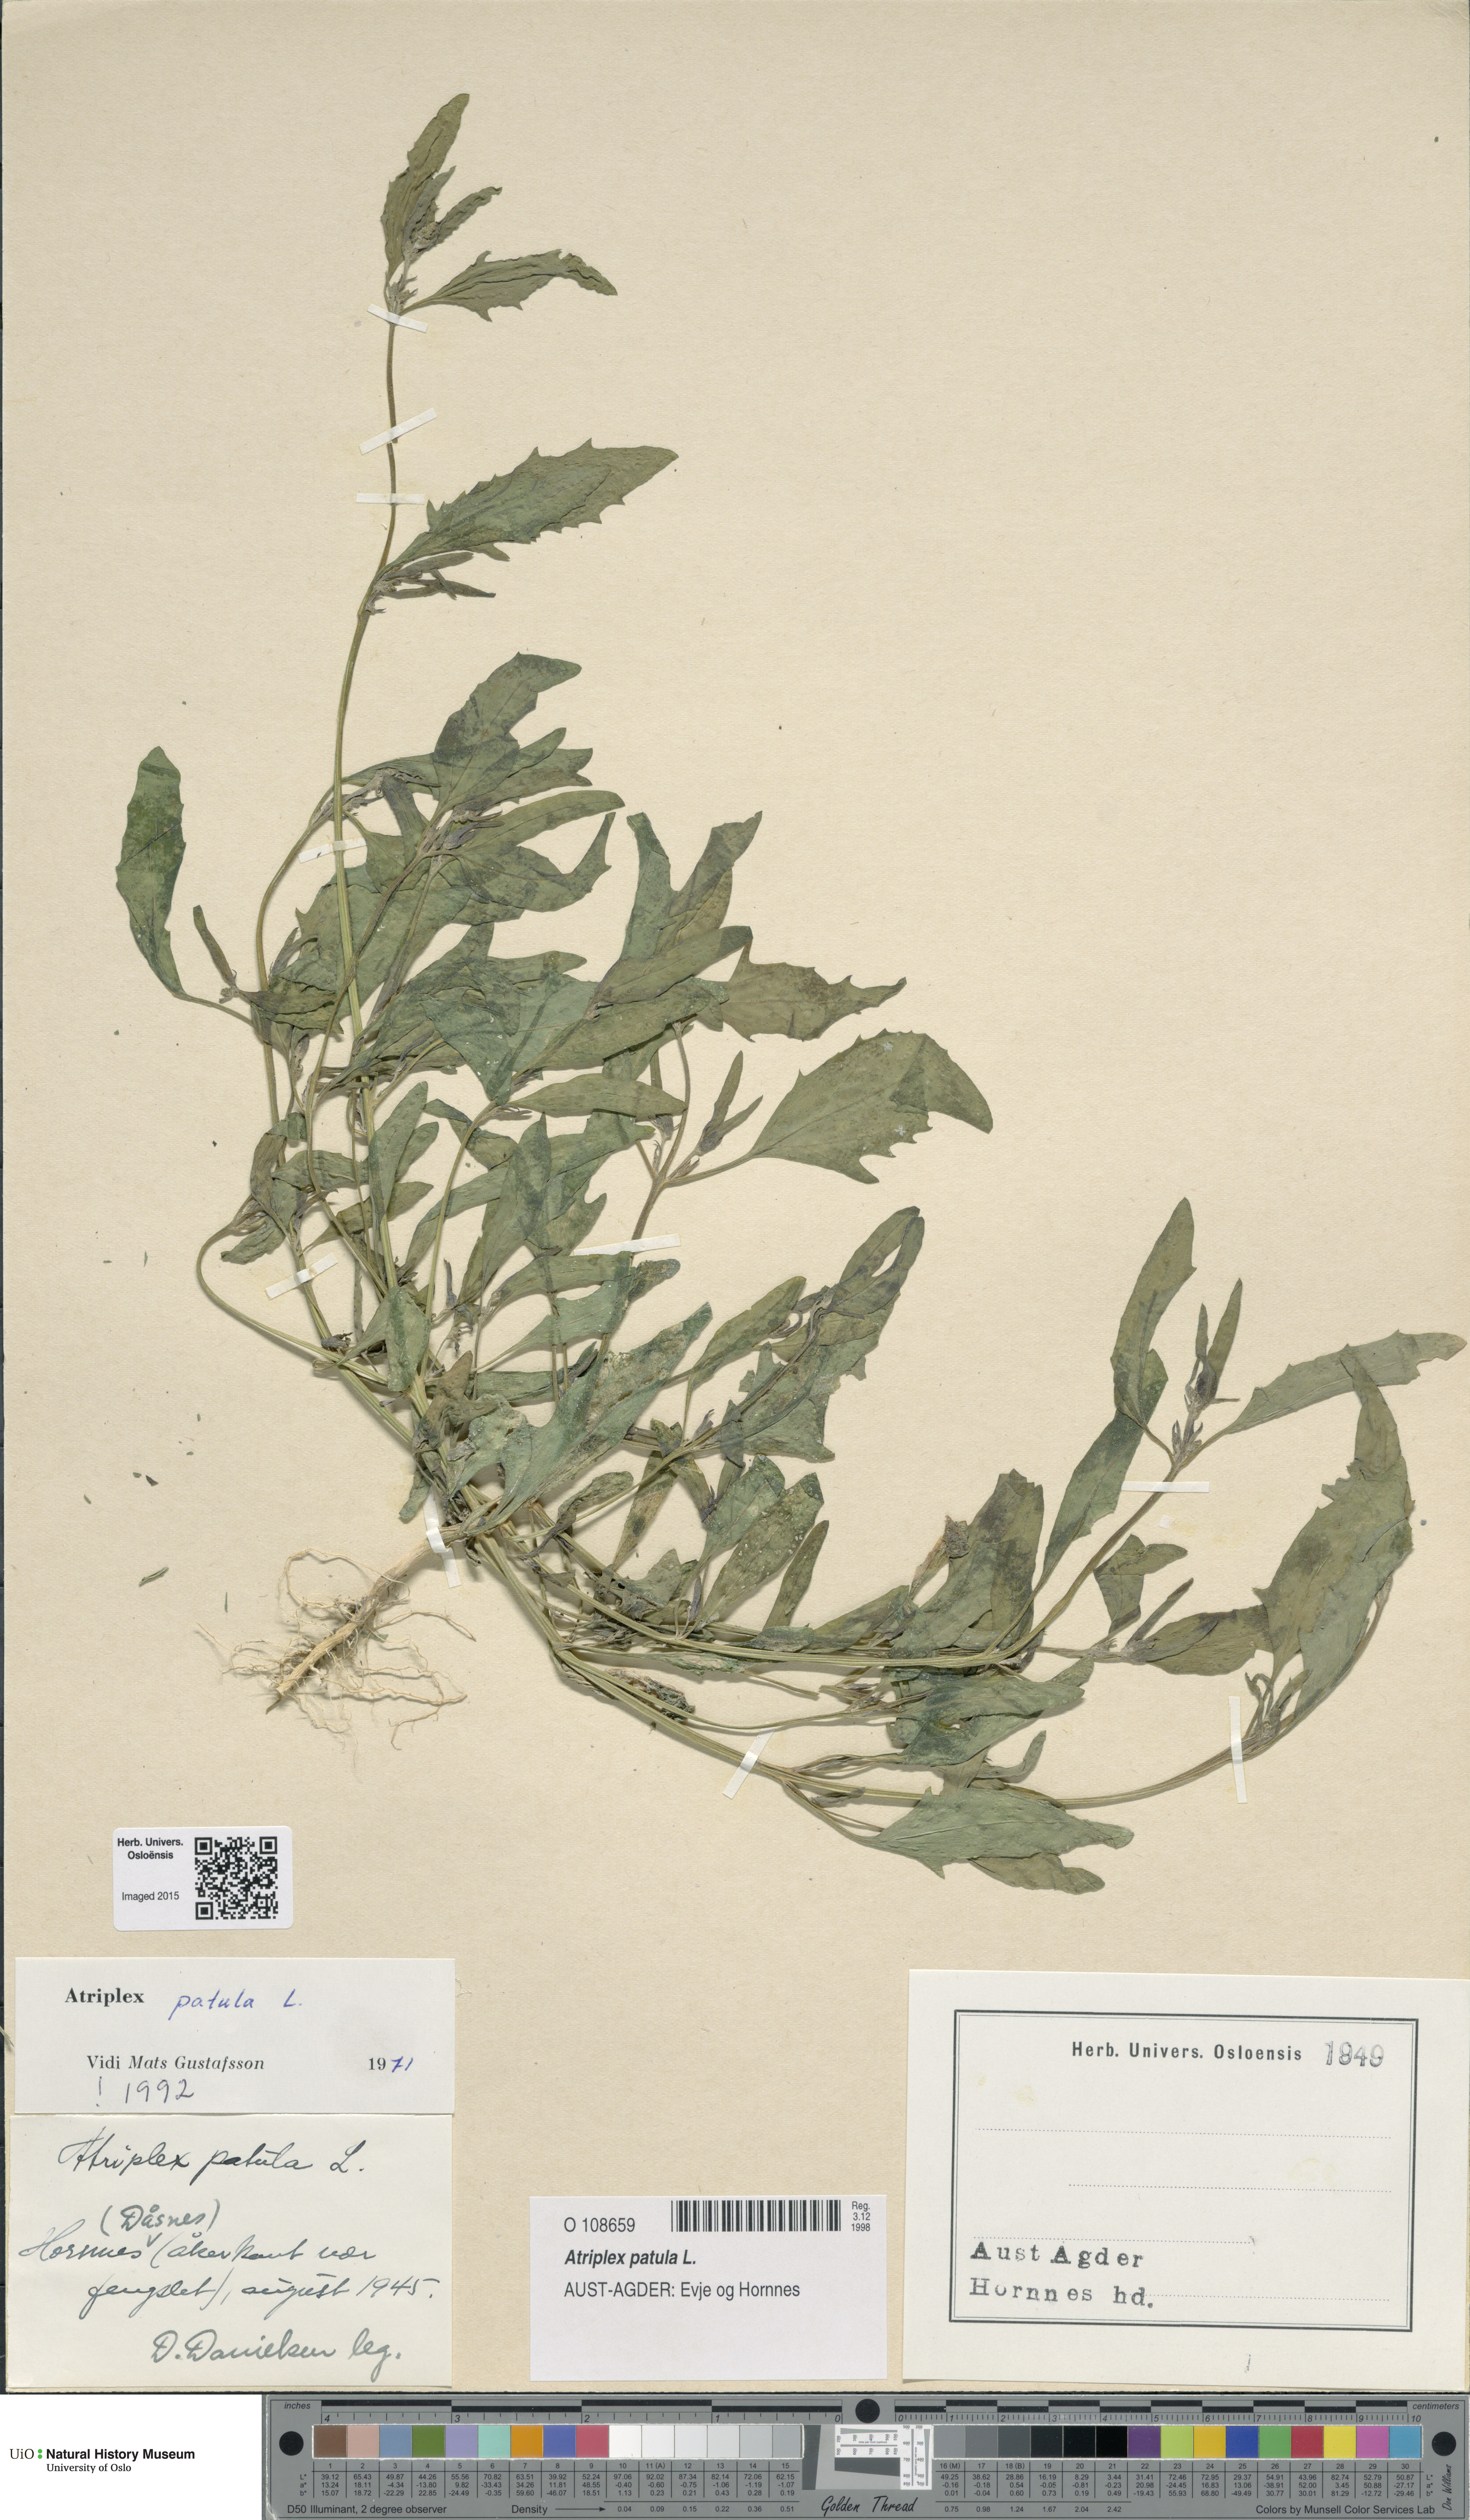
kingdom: Plantae
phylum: Tracheophyta
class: Magnoliopsida
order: Caryophyllales
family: Amaranthaceae
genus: Atriplex
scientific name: Atriplex patula
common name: Common orache
